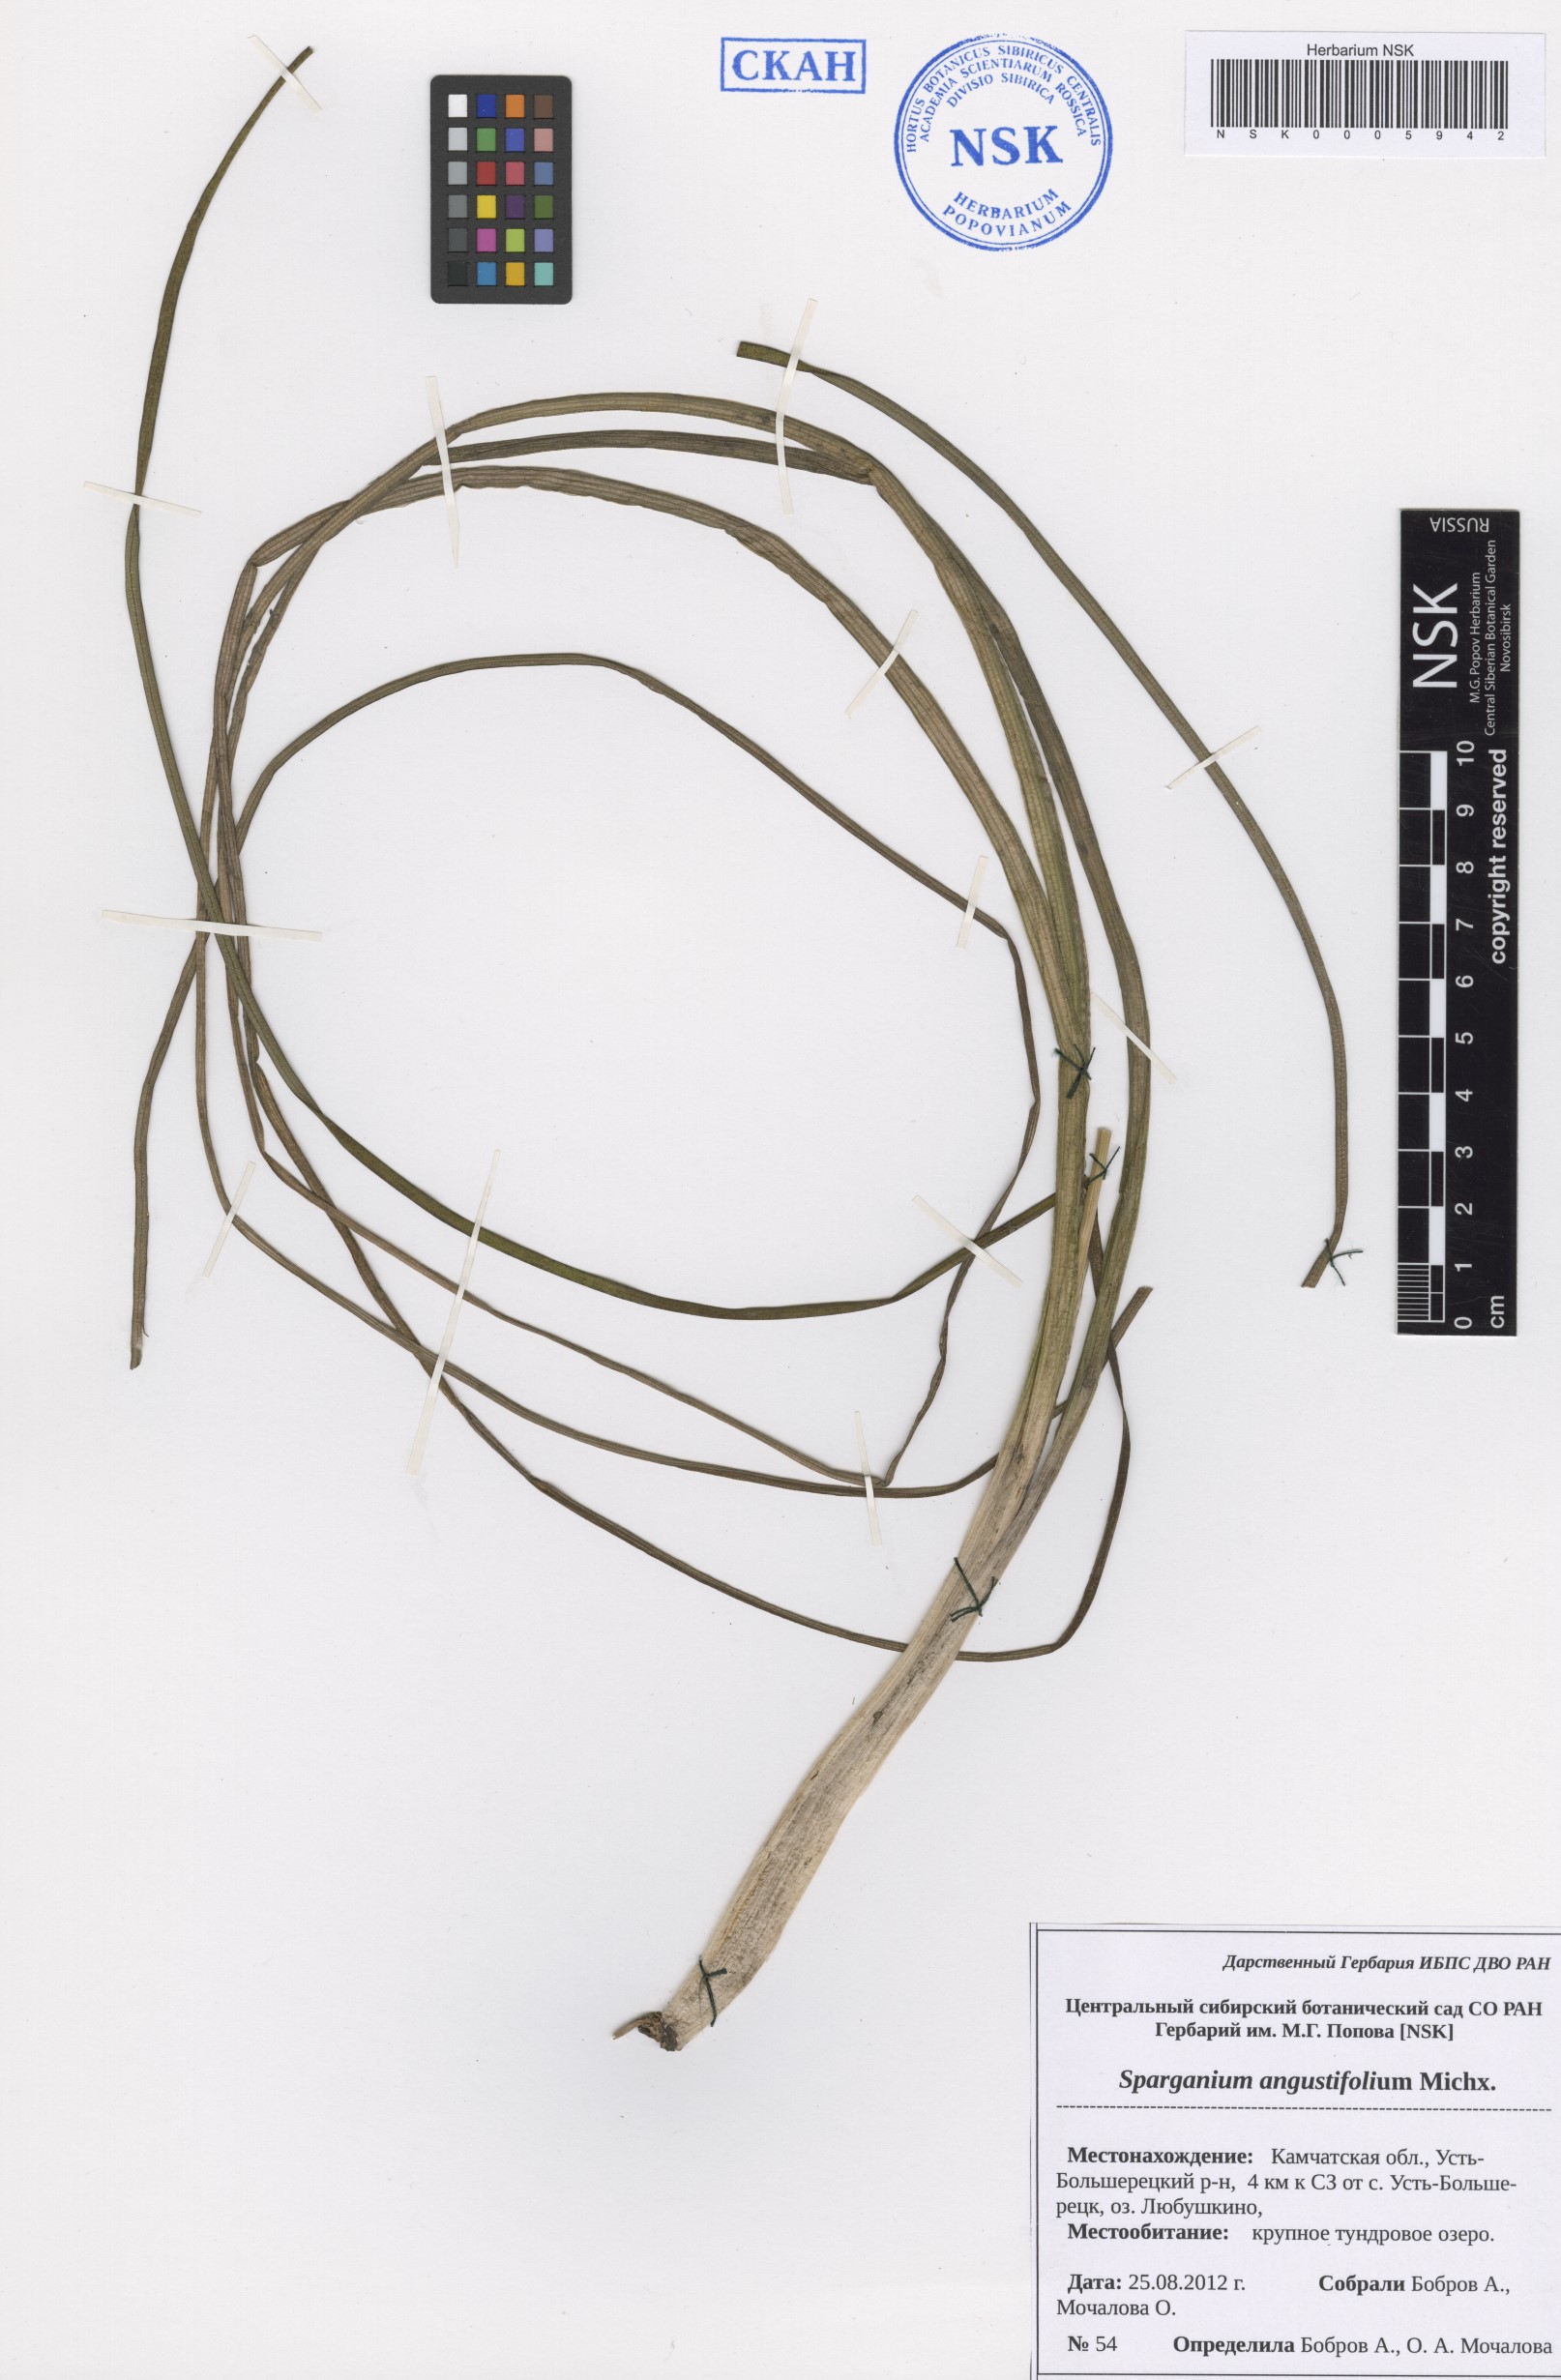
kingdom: Plantae
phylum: Tracheophyta
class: Liliopsida
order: Poales
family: Typhaceae
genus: Sparganium
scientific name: Sparganium angustifolium
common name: Floating bur-reed
